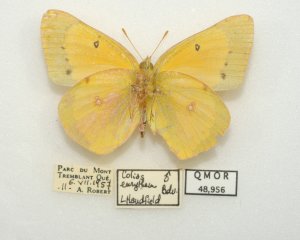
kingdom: Animalia
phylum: Arthropoda
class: Insecta
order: Lepidoptera
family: Pieridae
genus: Colias
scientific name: Colias eurytheme
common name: Orange Sulphur
